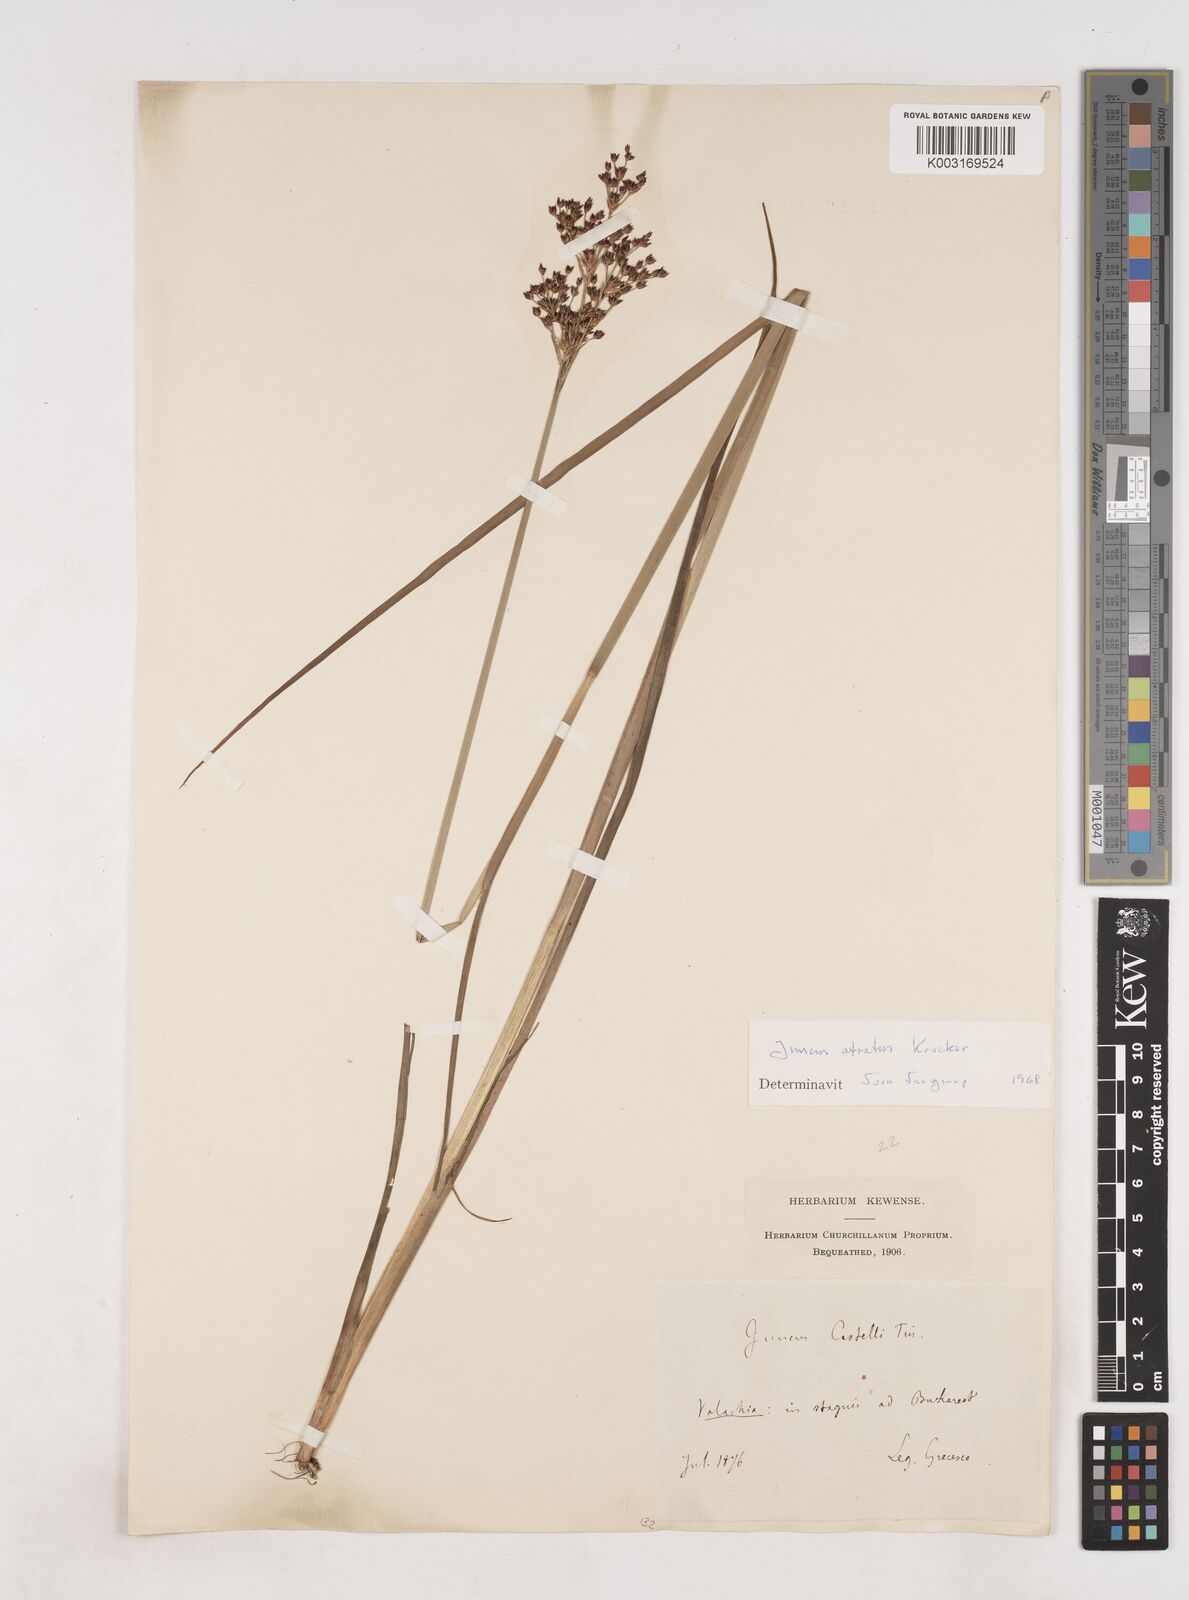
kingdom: Plantae
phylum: Tracheophyta
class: Liliopsida
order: Poales
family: Juncaceae
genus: Juncus
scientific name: Juncus atratus
